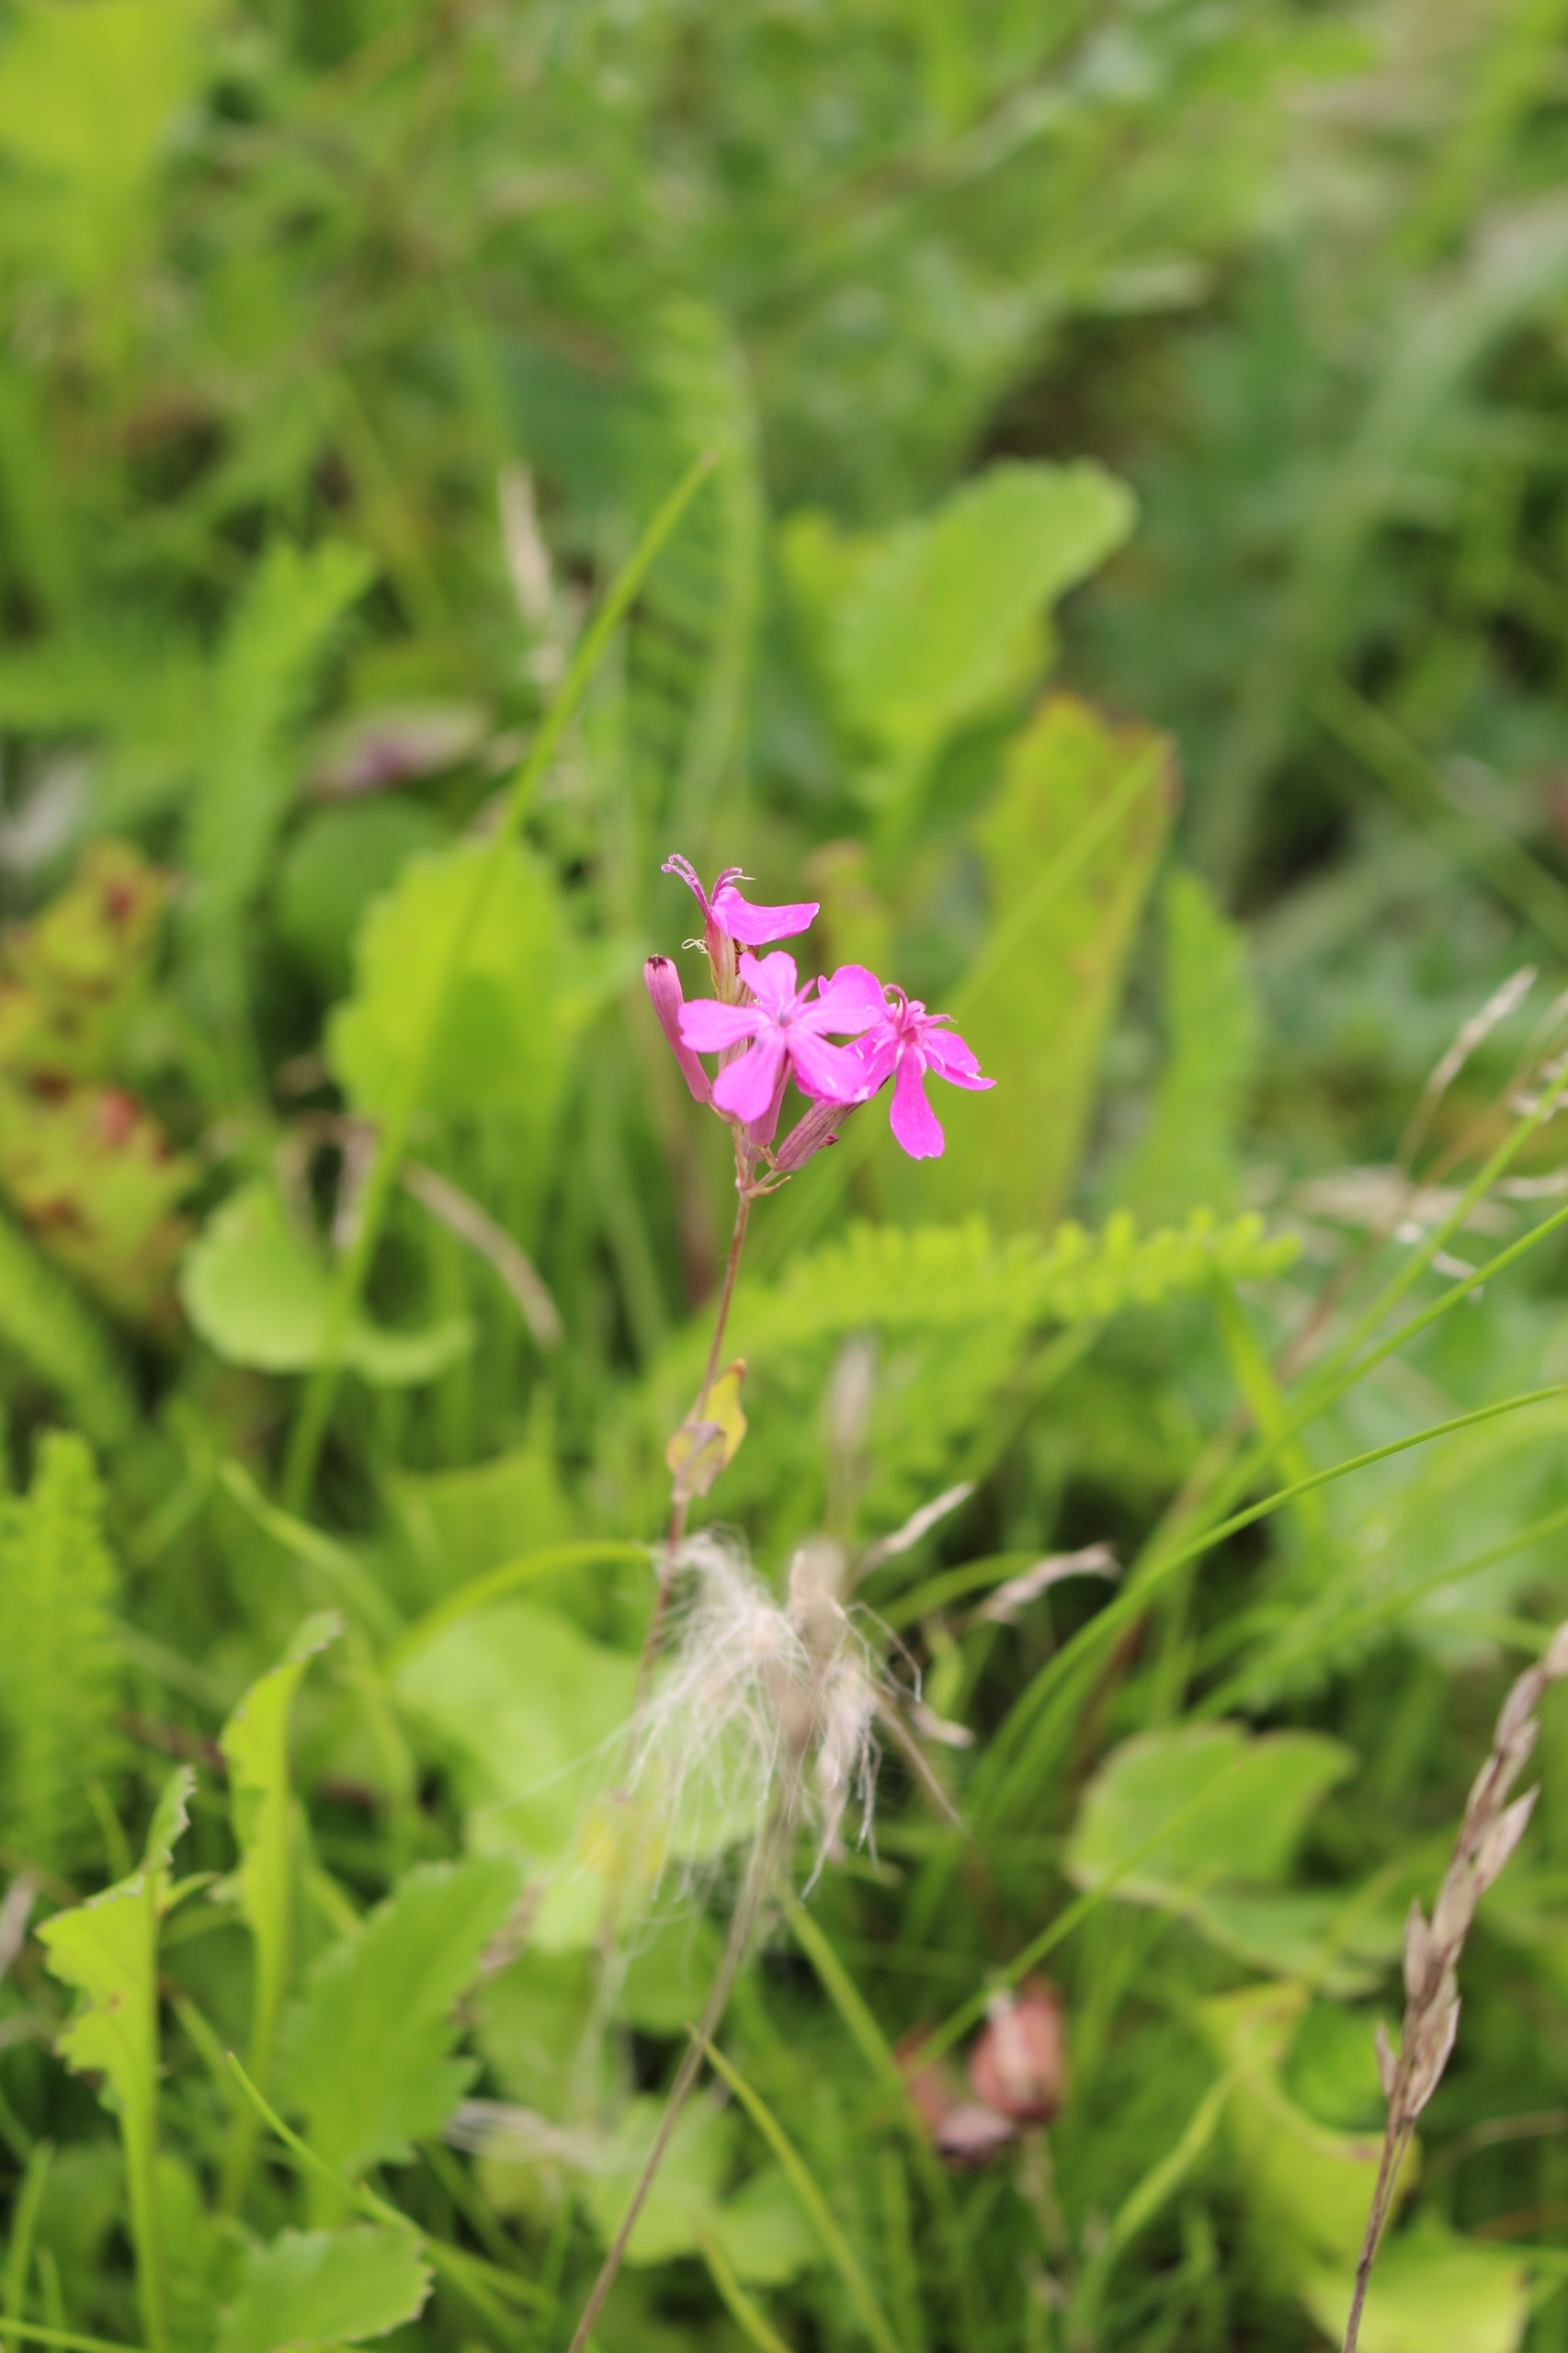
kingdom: Plantae
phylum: Tracheophyta
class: Magnoliopsida
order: Caryophyllales
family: Caryophyllaceae
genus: Atocion
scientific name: Atocion armeria
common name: Knippe-limurt
